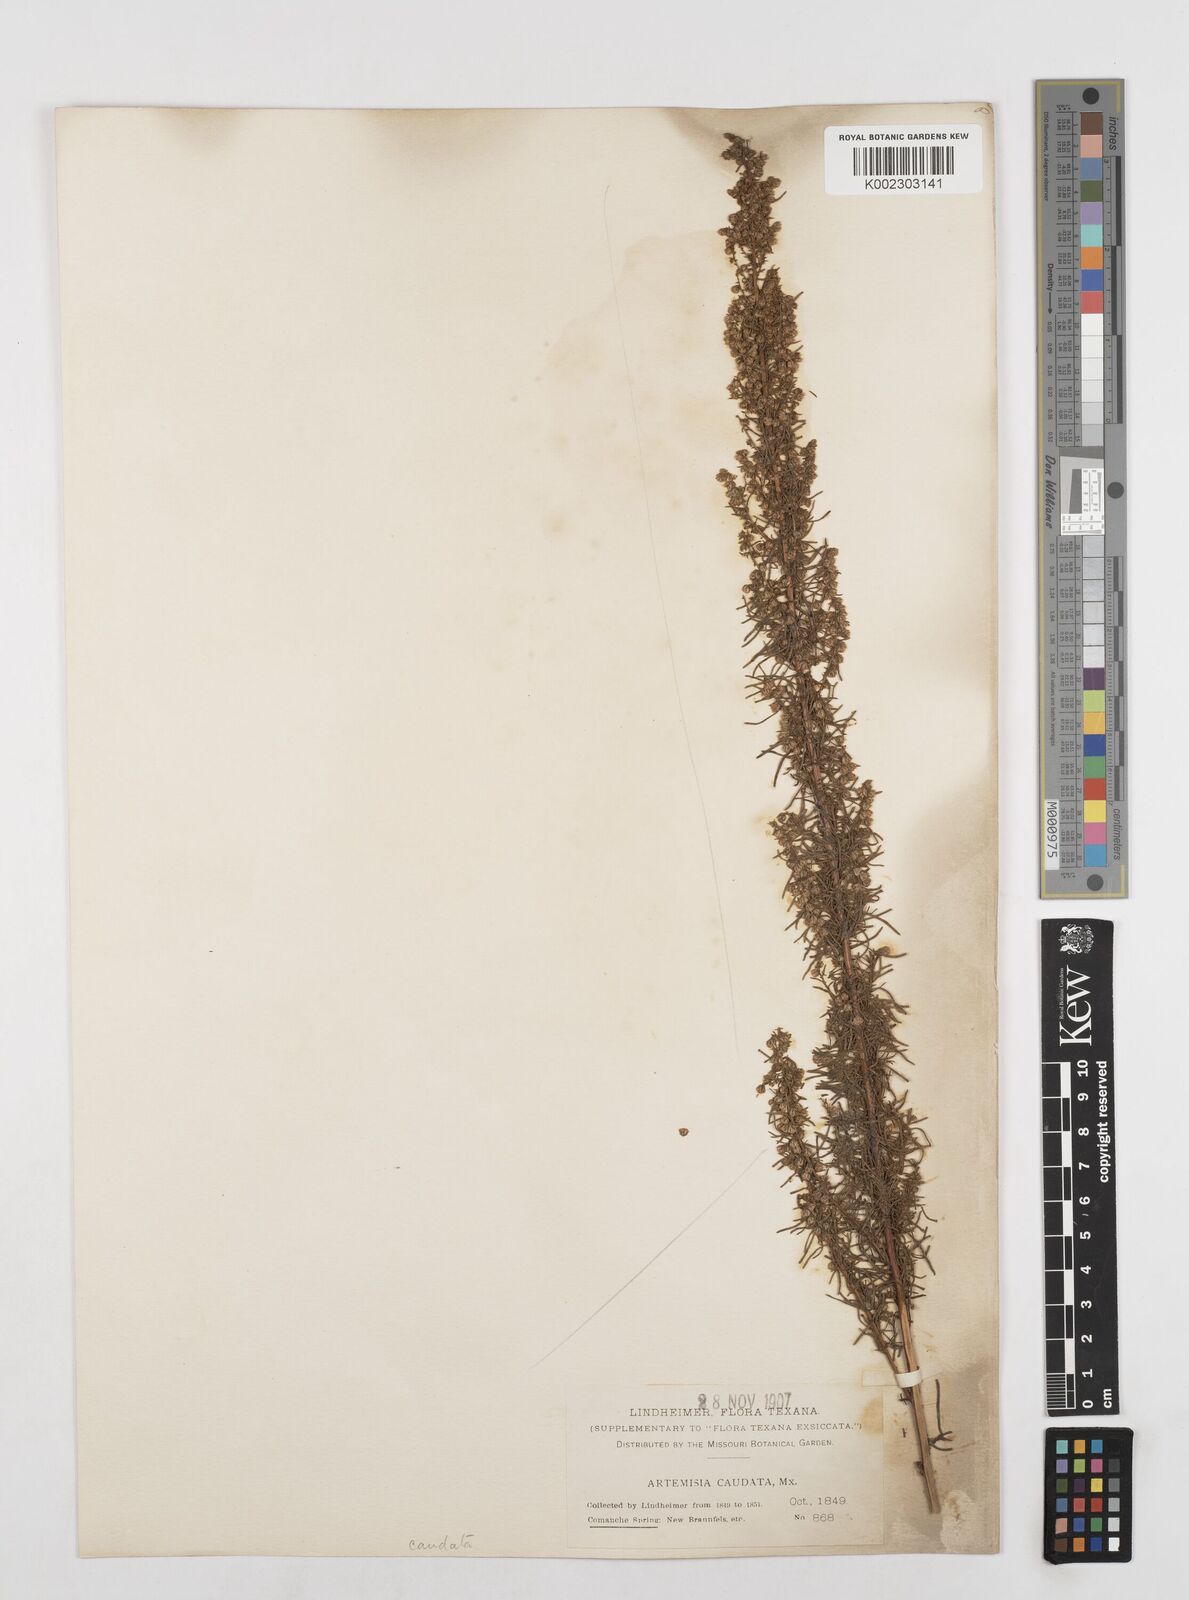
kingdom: Plantae
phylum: Tracheophyta
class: Magnoliopsida
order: Asterales
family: Asteraceae
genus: Artemisia
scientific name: Artemisia campestris
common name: Field wormwood
